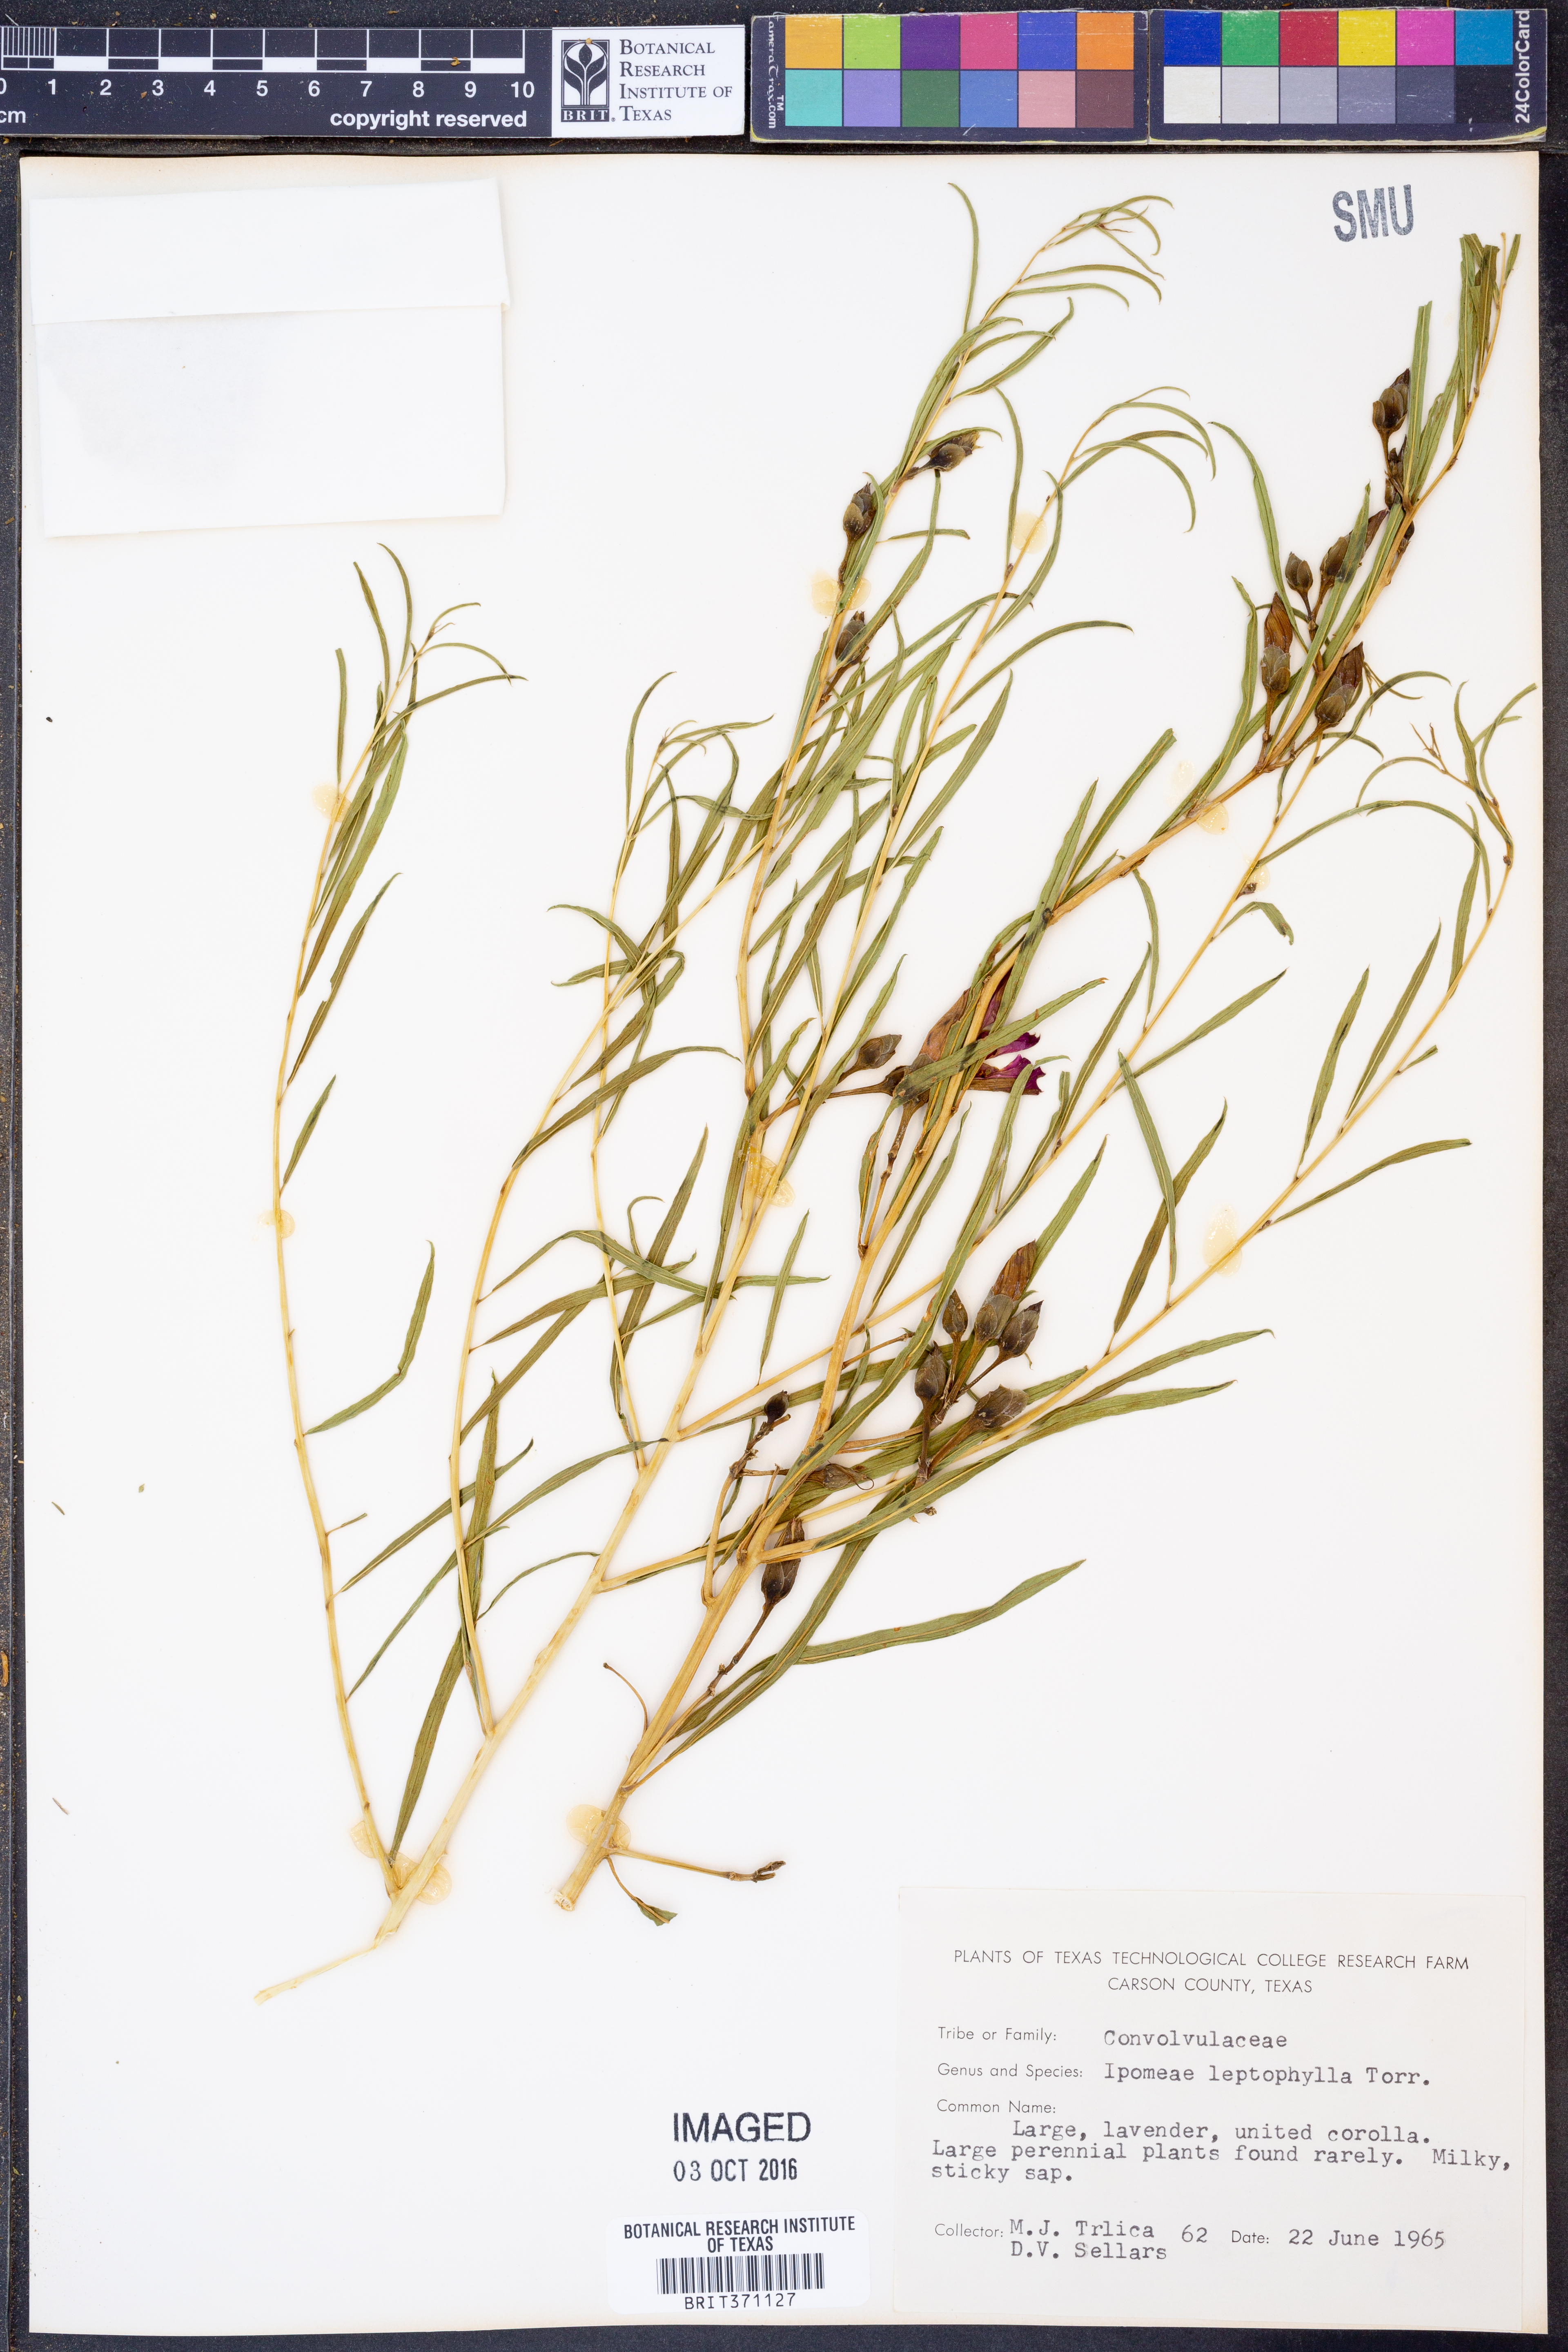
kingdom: Plantae
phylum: Tracheophyta
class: Magnoliopsida
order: Solanales
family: Convolvulaceae
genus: Ipomoea
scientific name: Ipomoea leptophylla
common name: Bush moonflower
